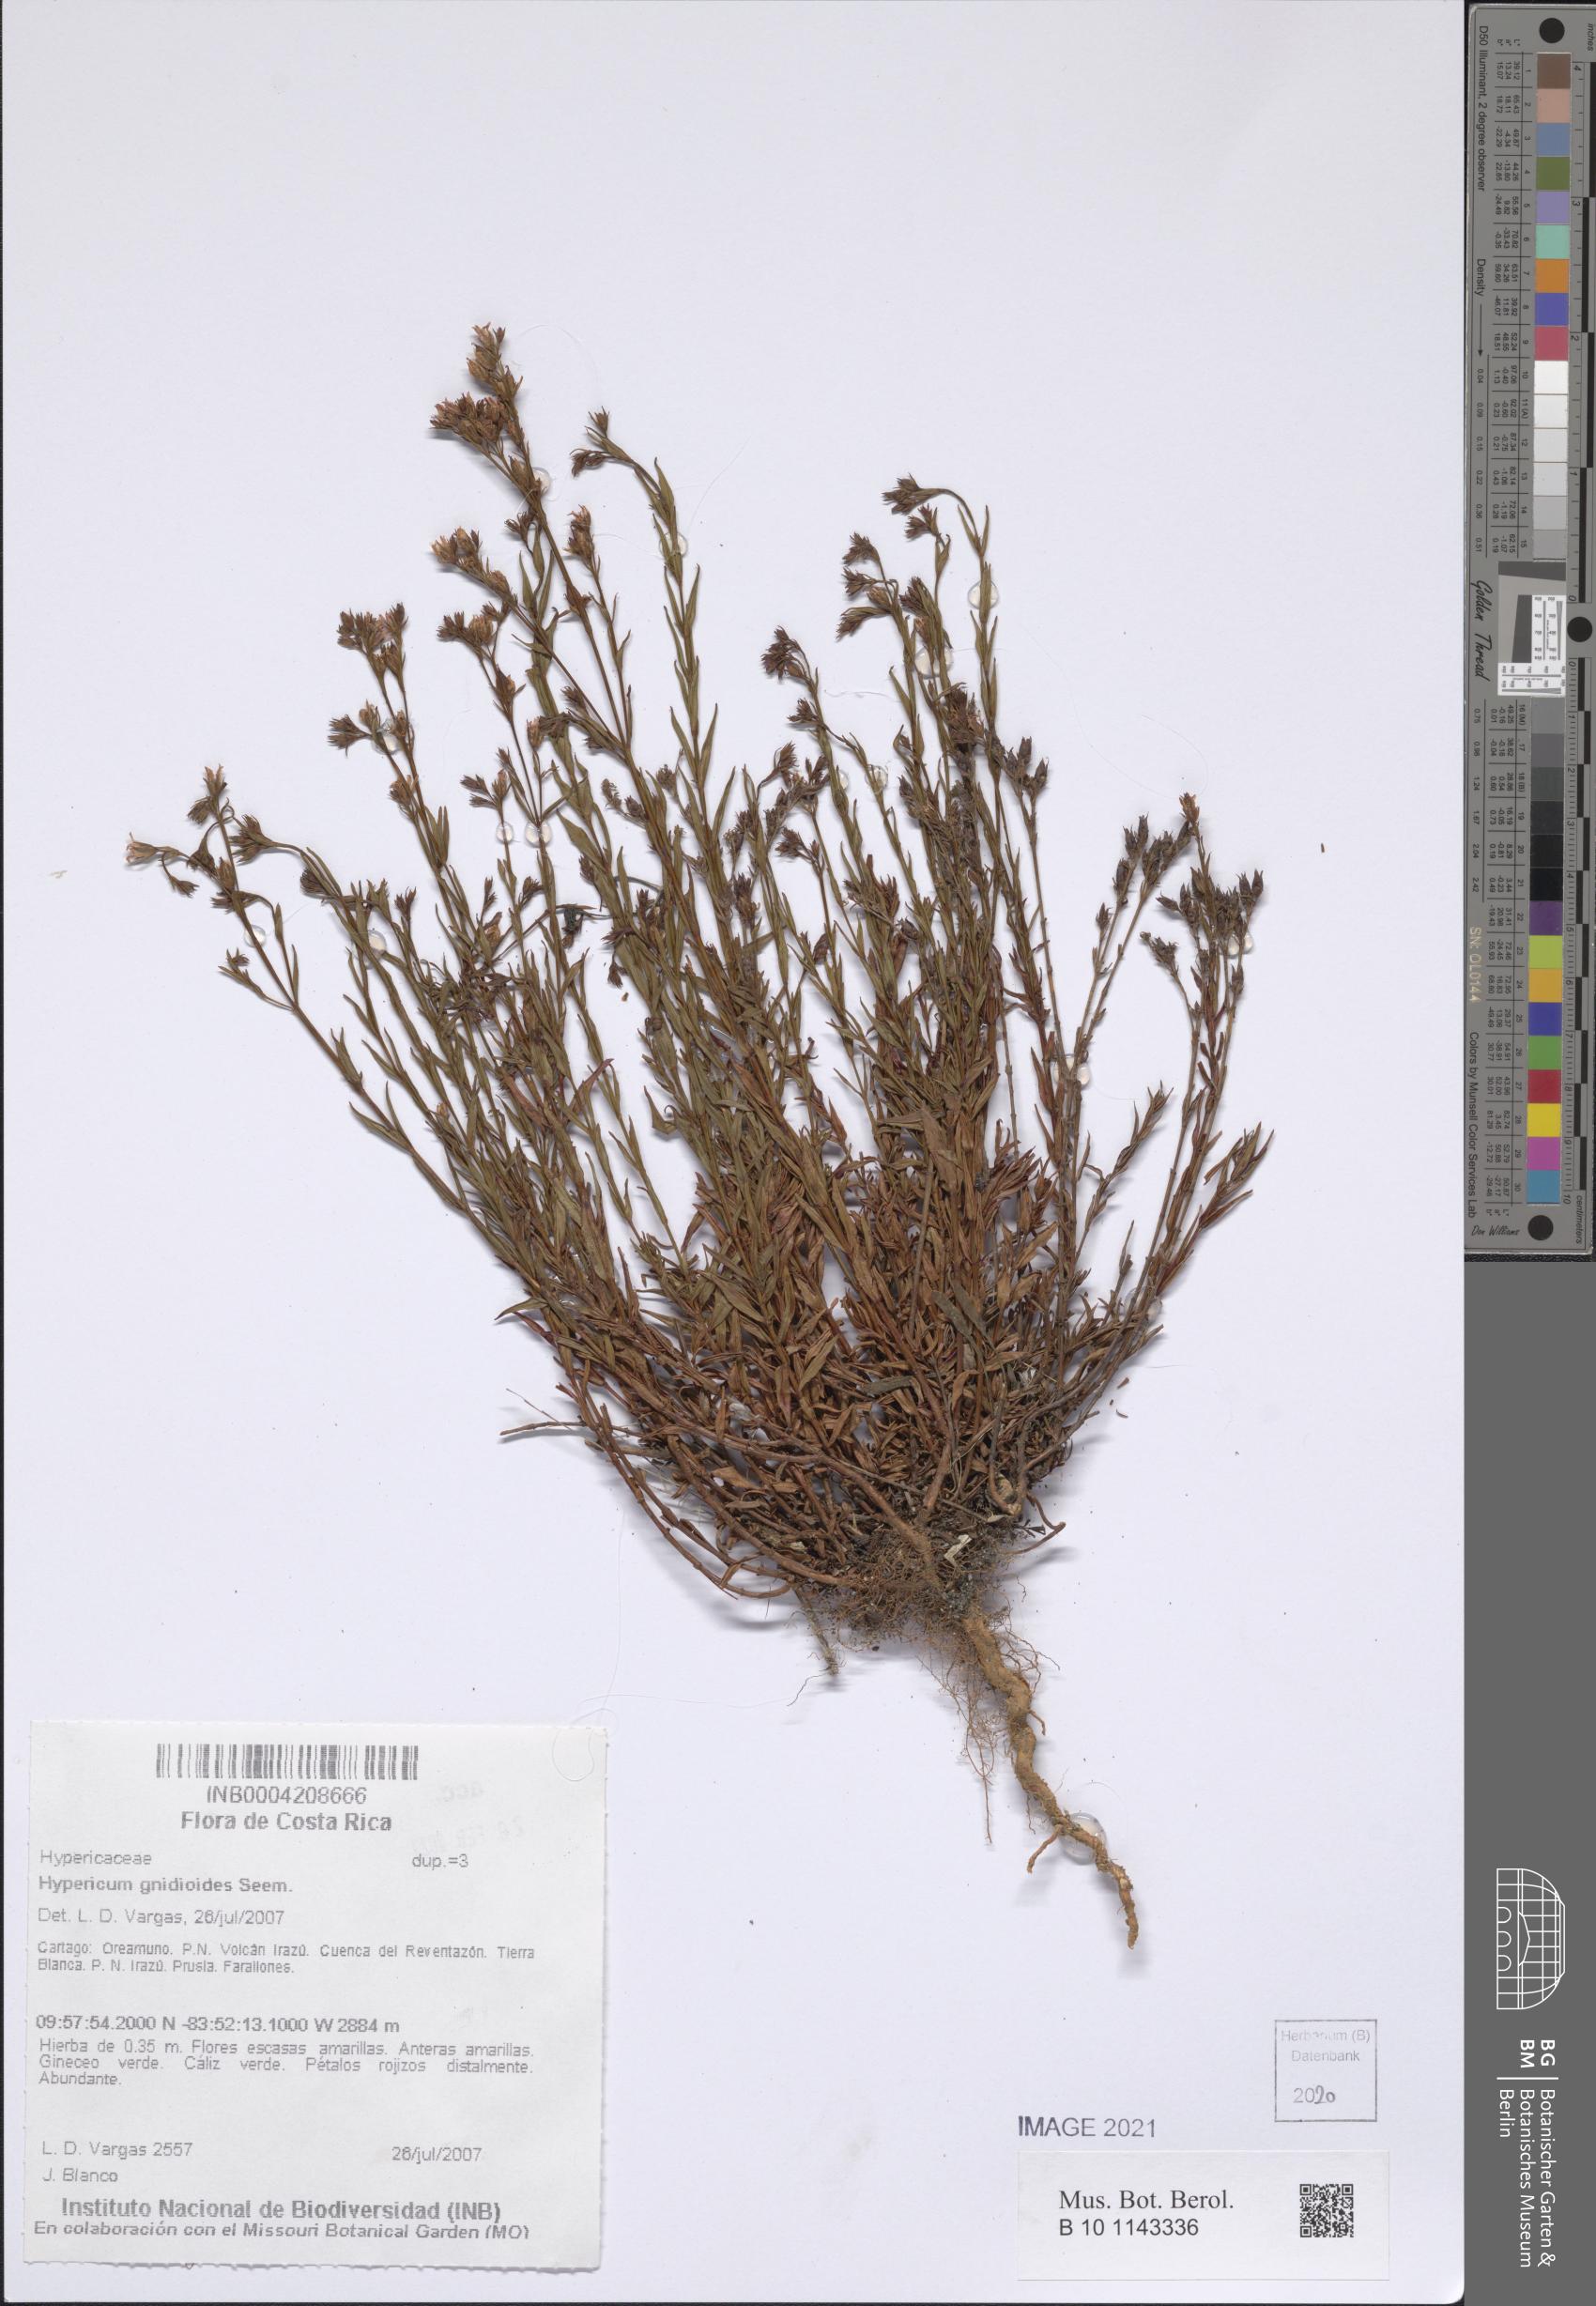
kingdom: Plantae
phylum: Tracheophyta
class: Magnoliopsida
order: Malpighiales
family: Hypericaceae
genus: Hypericum
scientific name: Hypericum gnidioides
